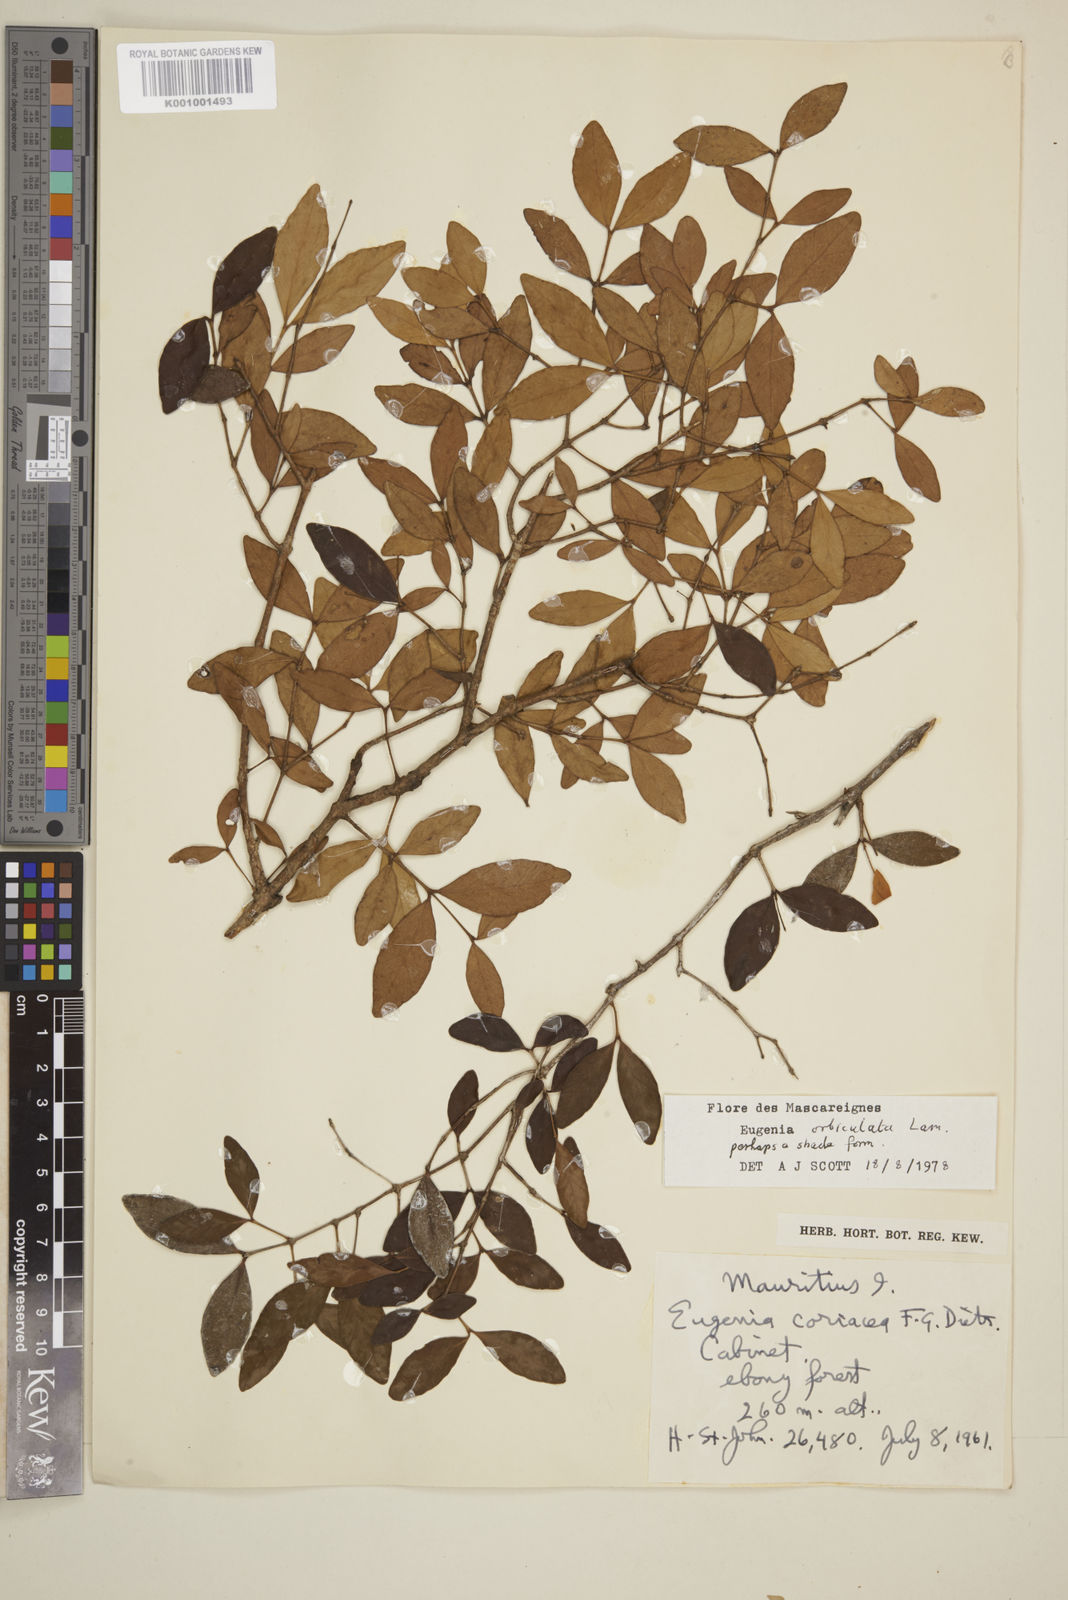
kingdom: Plantae
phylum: Tracheophyta
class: Magnoliopsida
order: Myrtales
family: Myrtaceae
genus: Eugenia
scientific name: Eugenia orbiculata
